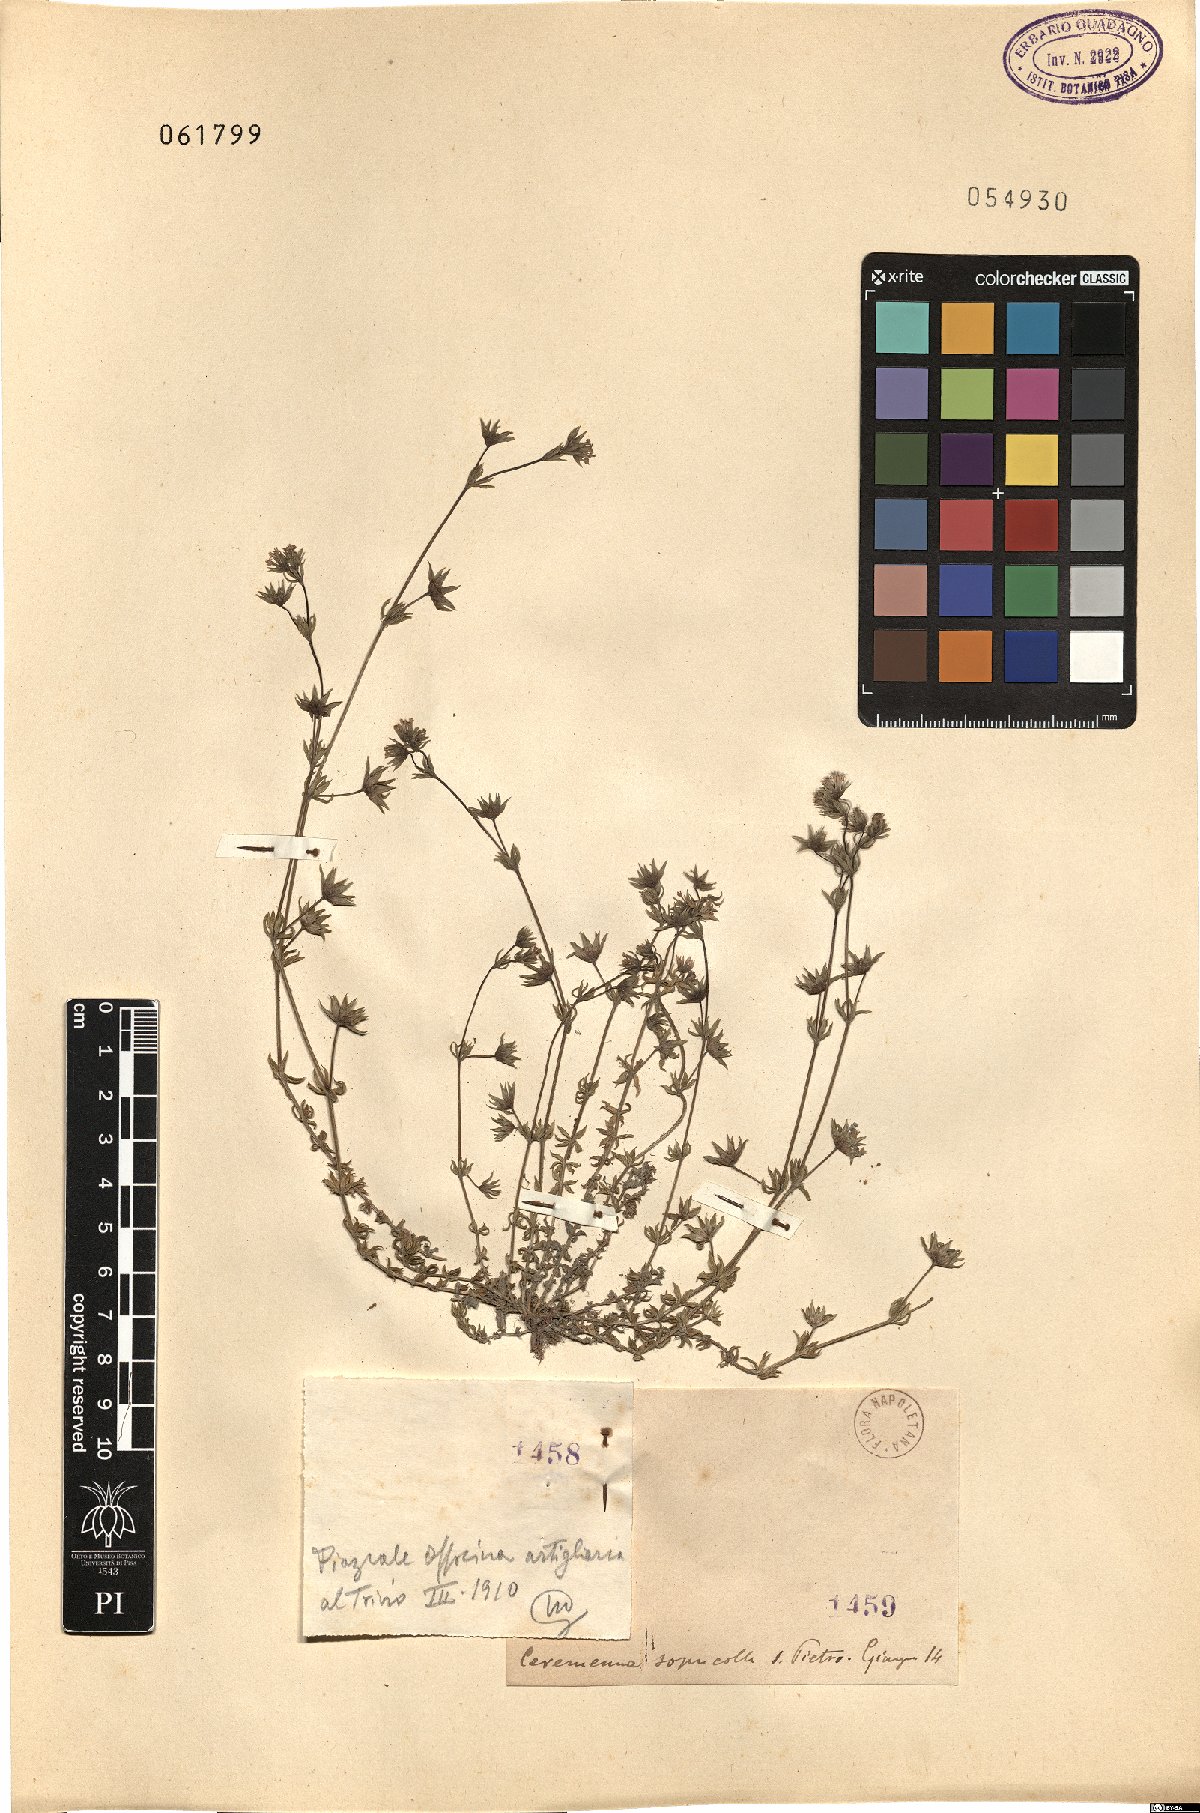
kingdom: Plantae
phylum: Tracheophyta
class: Magnoliopsida
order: Gentianales
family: Rubiaceae
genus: Sherardia
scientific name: Sherardia
